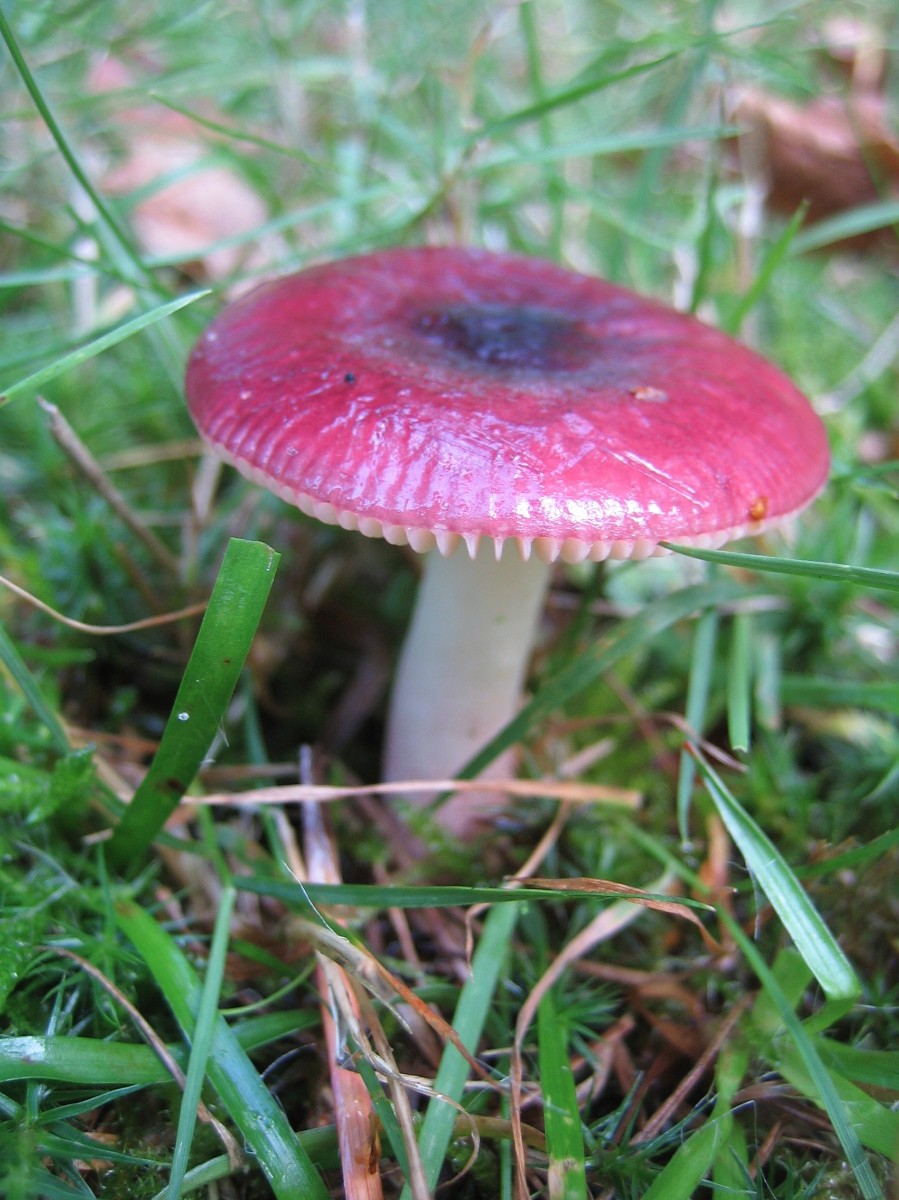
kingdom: Fungi
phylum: Basidiomycota
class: Agaricomycetes
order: Russulales
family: Russulaceae
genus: Russula
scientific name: Russula nitida
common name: året skørhat
